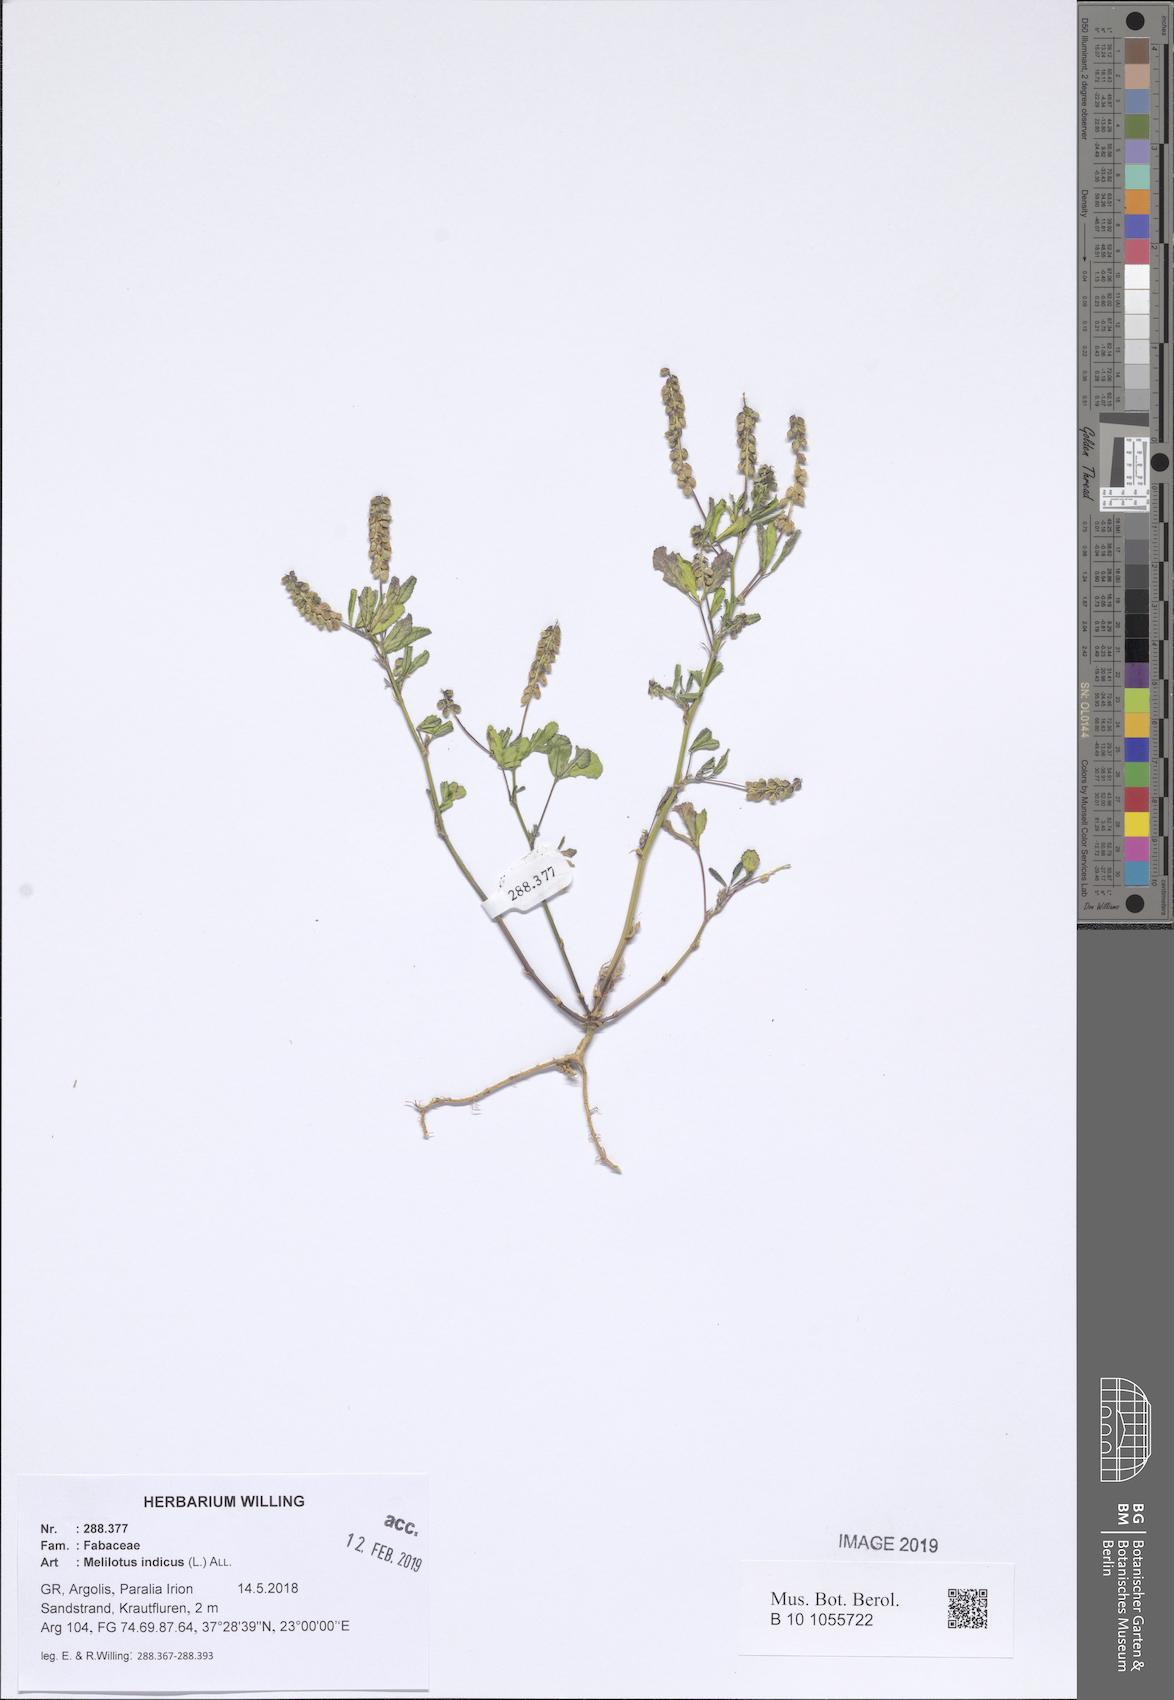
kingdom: Plantae
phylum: Tracheophyta
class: Magnoliopsida
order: Fabales
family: Fabaceae
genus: Melilotus
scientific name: Melilotus indicus
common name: Small melilot
